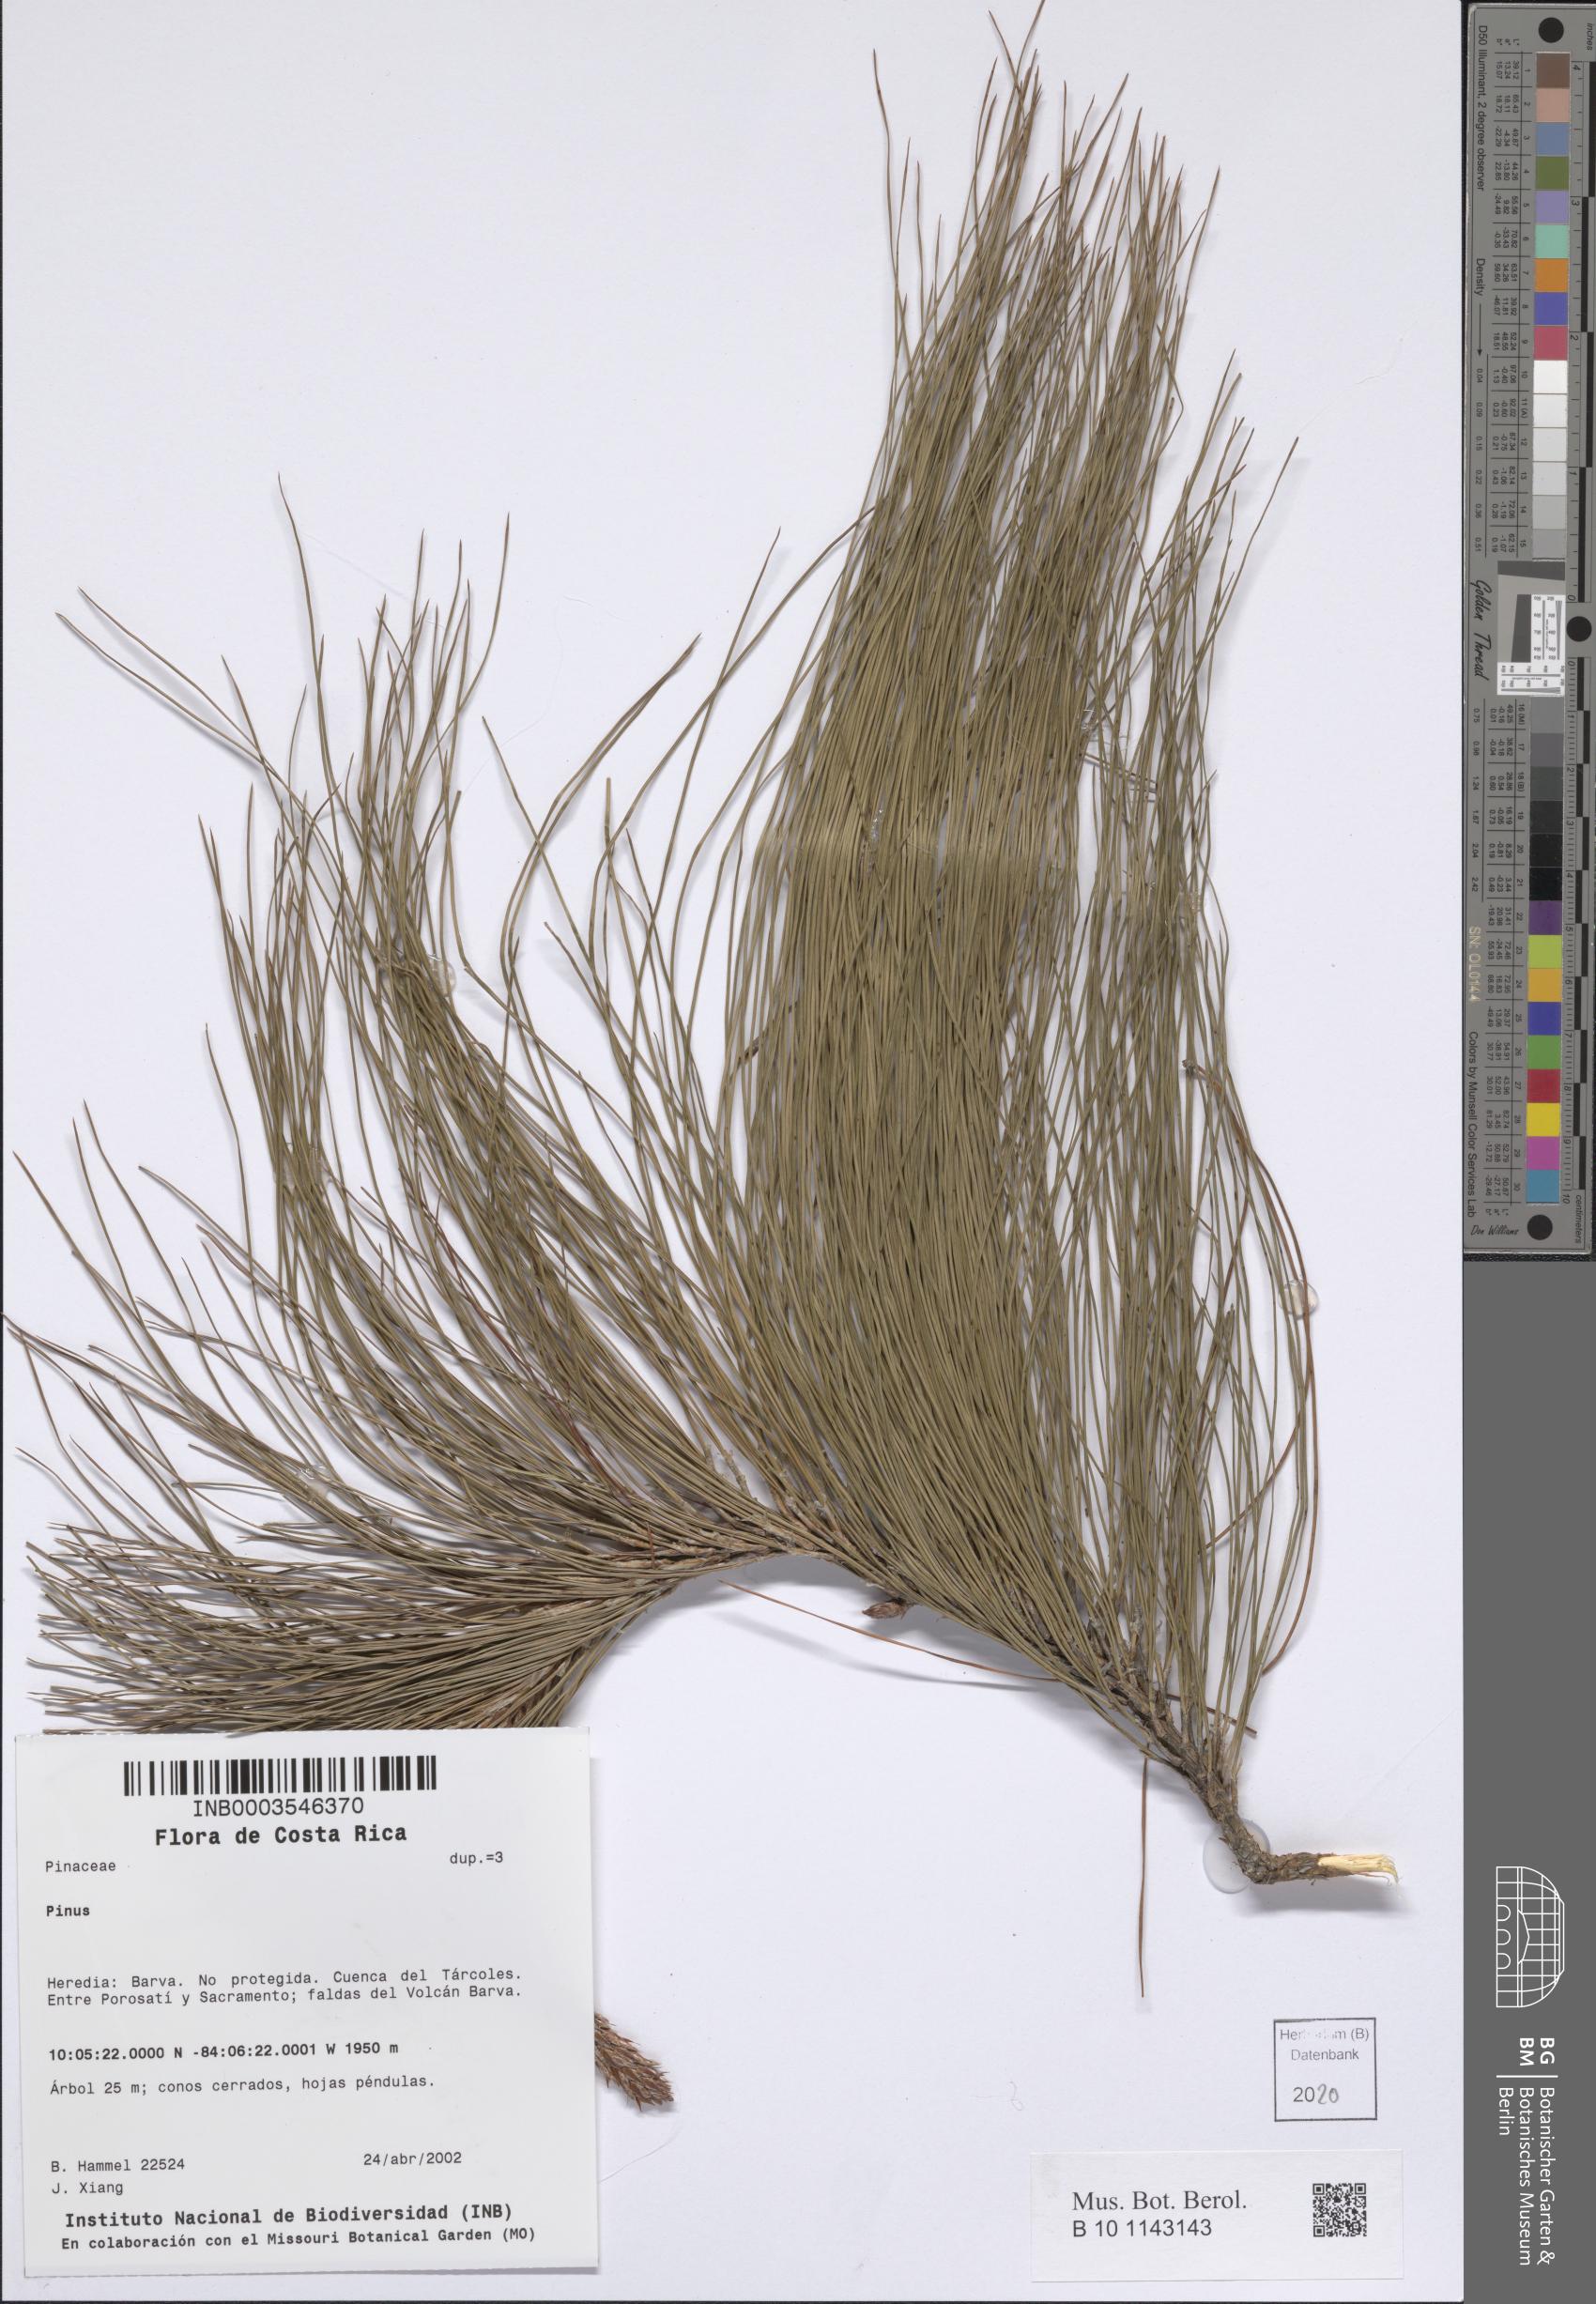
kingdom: Plantae
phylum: Tracheophyta
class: Pinopsida
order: Pinales
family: Pinaceae
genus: Pinus
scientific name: Pinus
